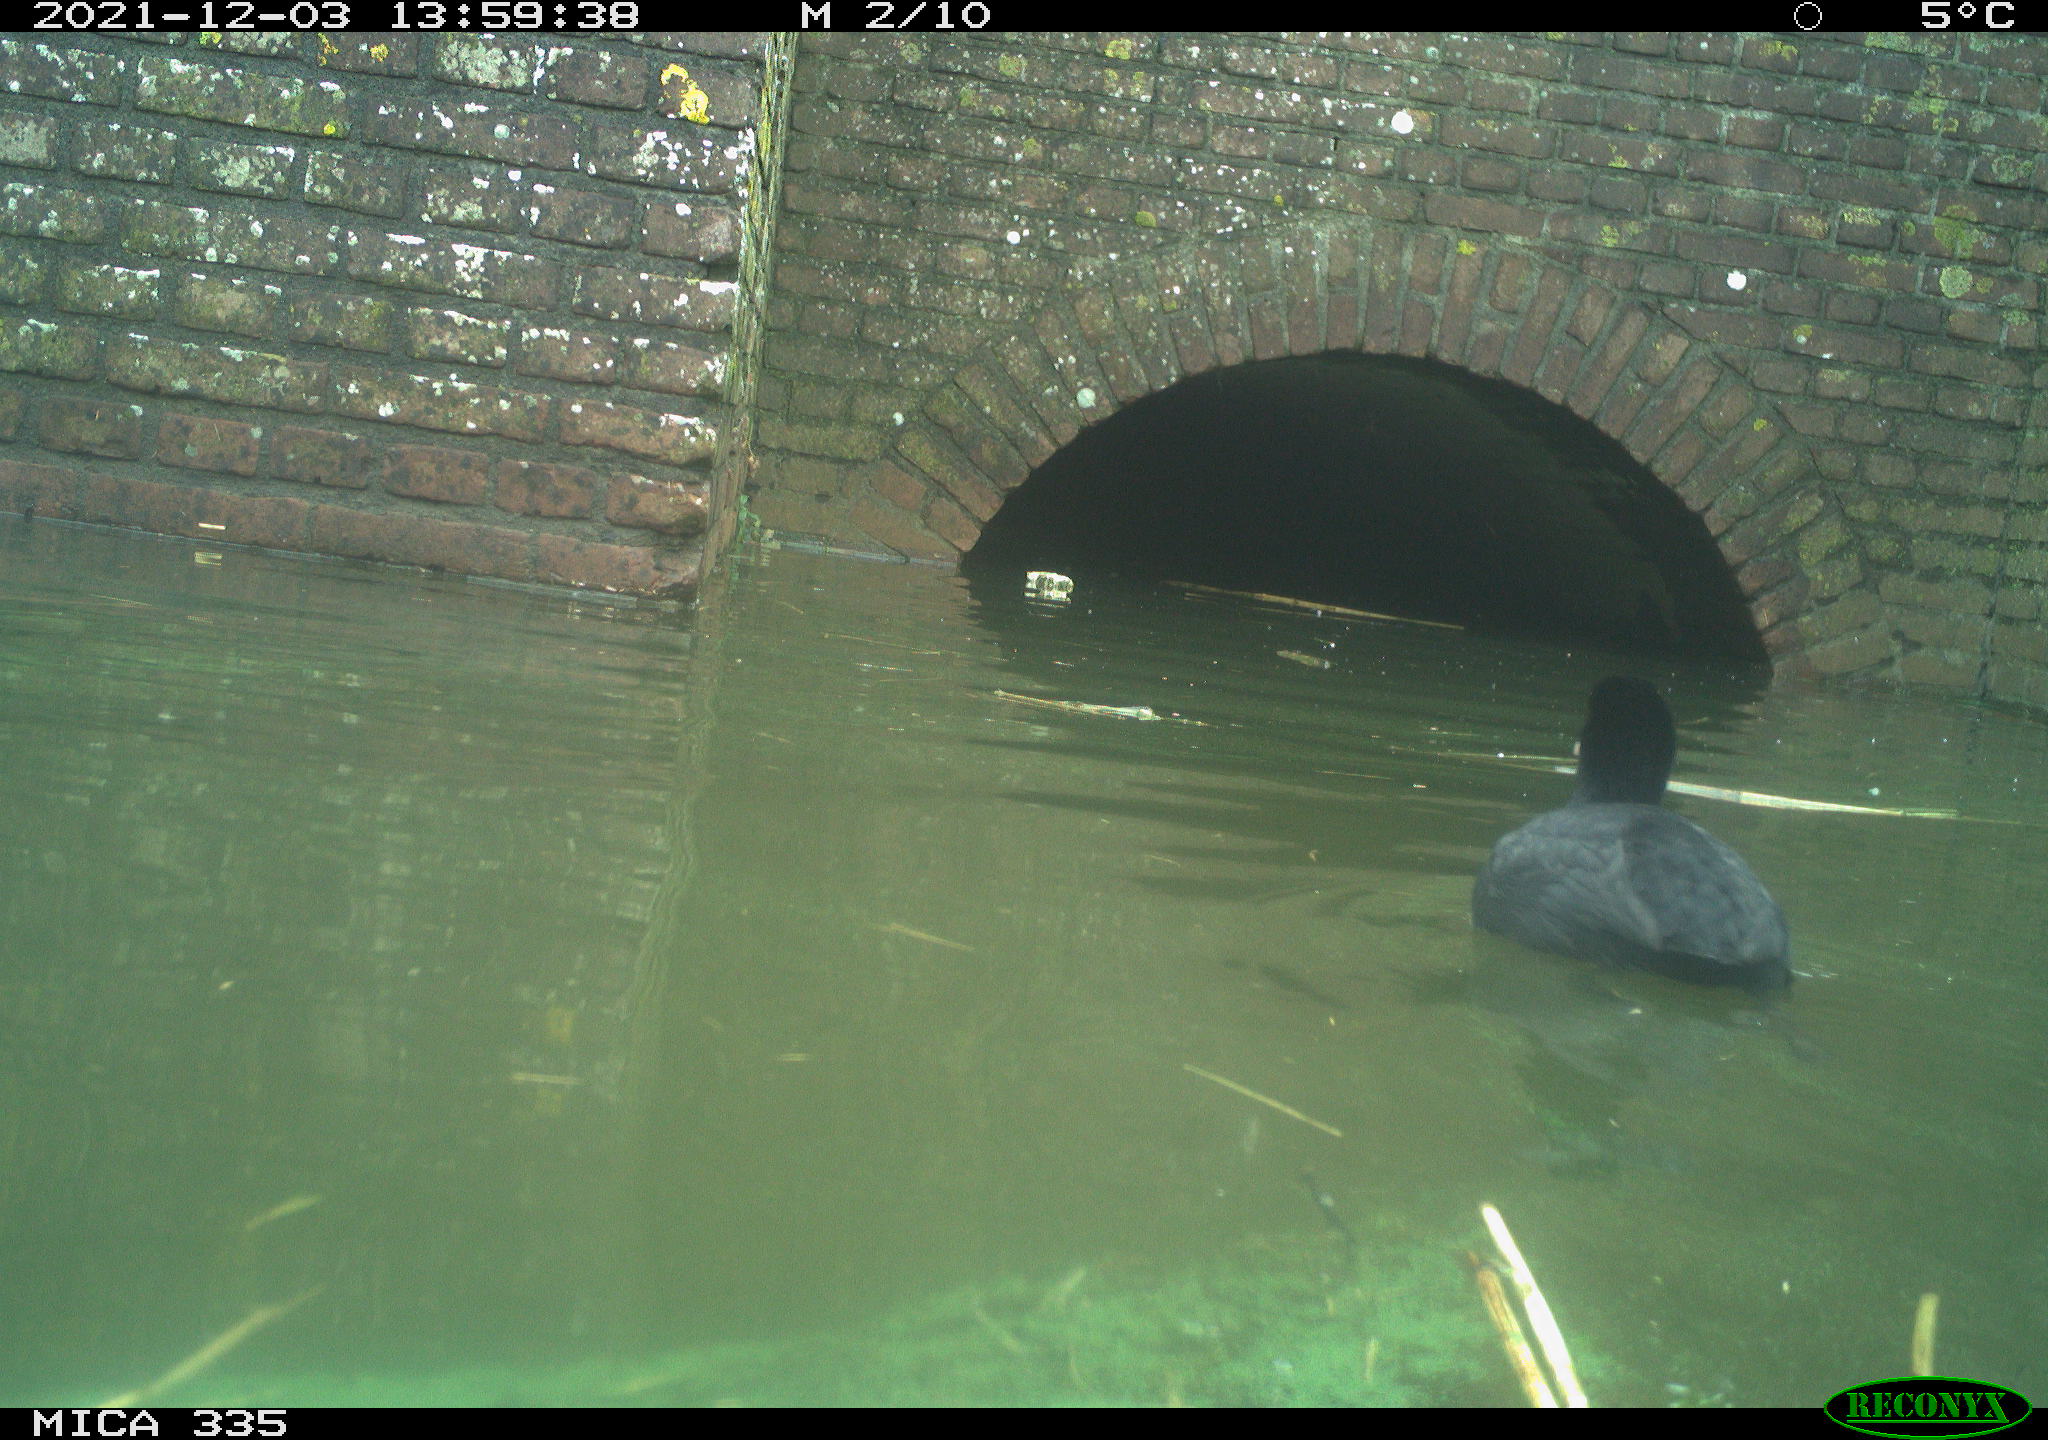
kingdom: Animalia
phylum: Chordata
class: Aves
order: Gruiformes
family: Rallidae
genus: Fulica
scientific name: Fulica atra
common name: Eurasian coot
